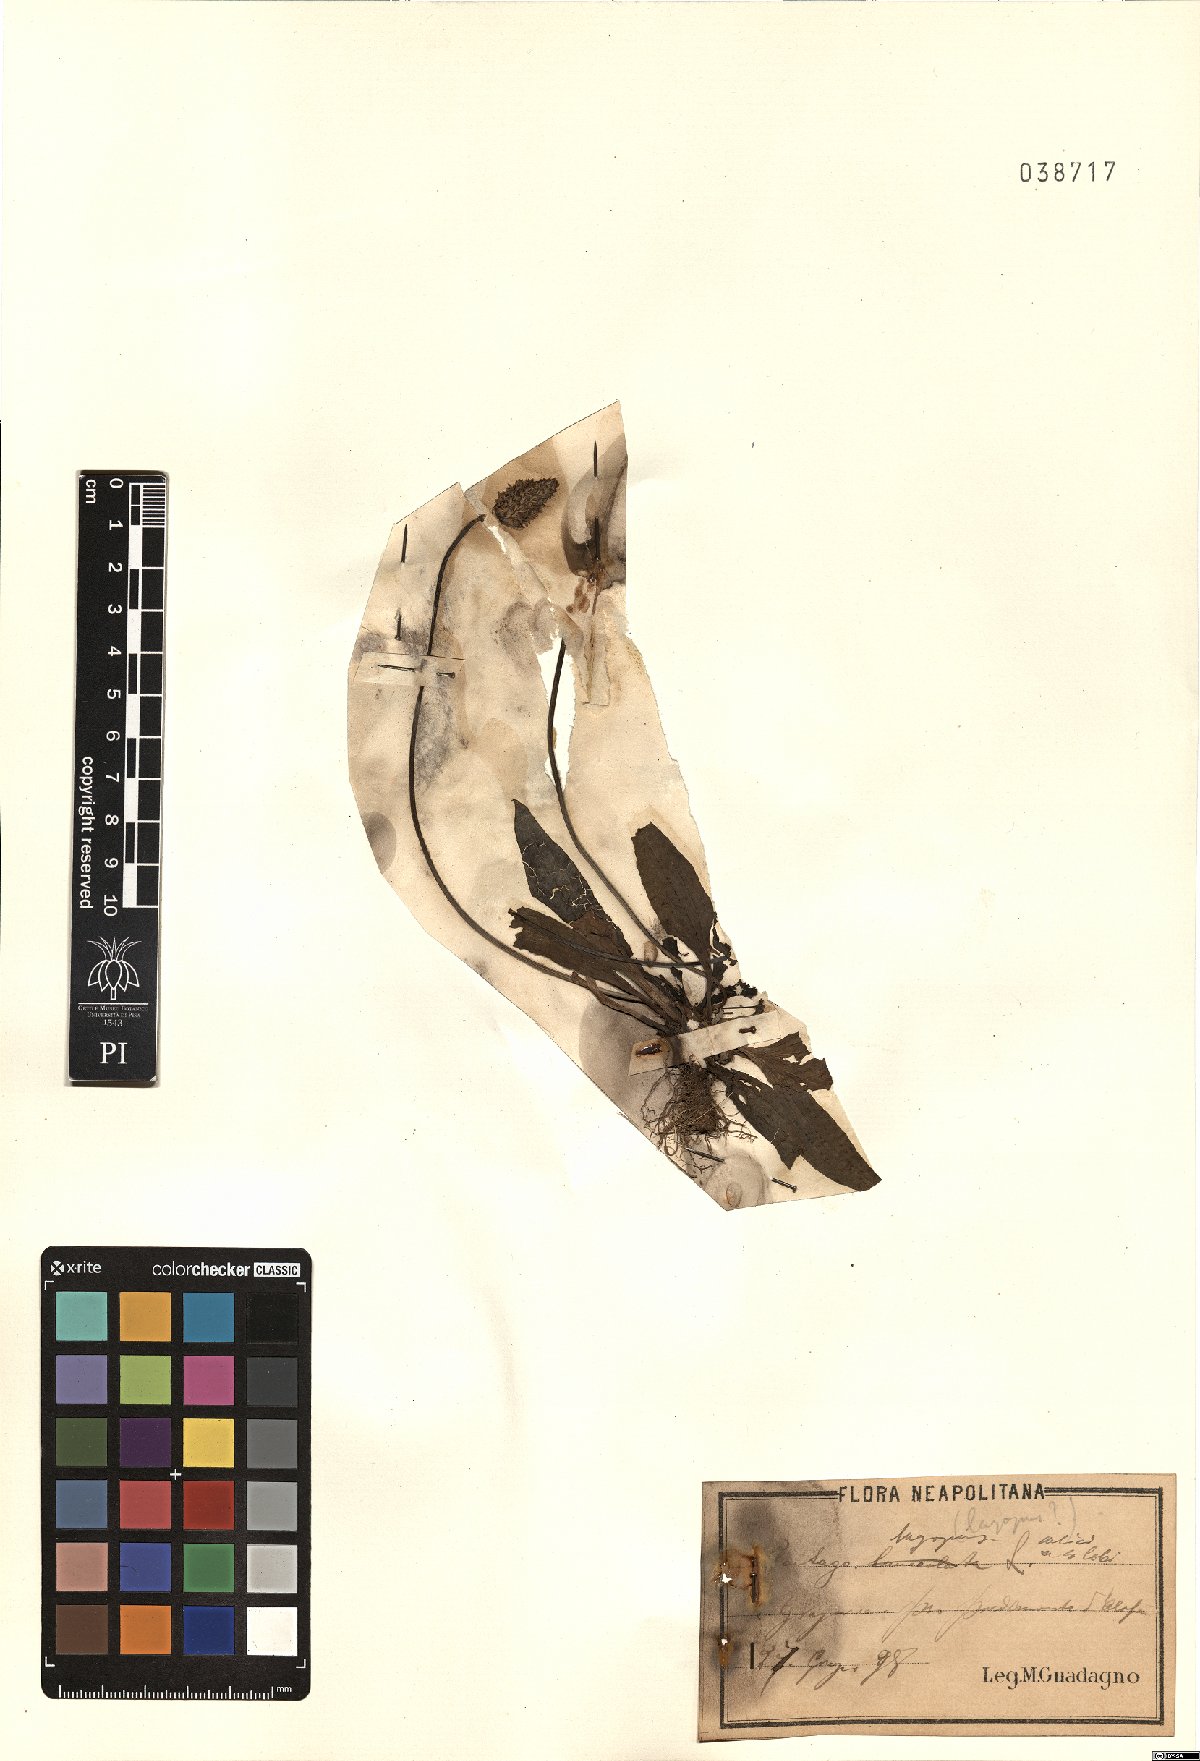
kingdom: Plantae
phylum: Tracheophyta
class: Magnoliopsida
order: Lamiales
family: Plantaginaceae
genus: Plantago
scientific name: Plantago lagopus
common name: Hare-foot plantain
